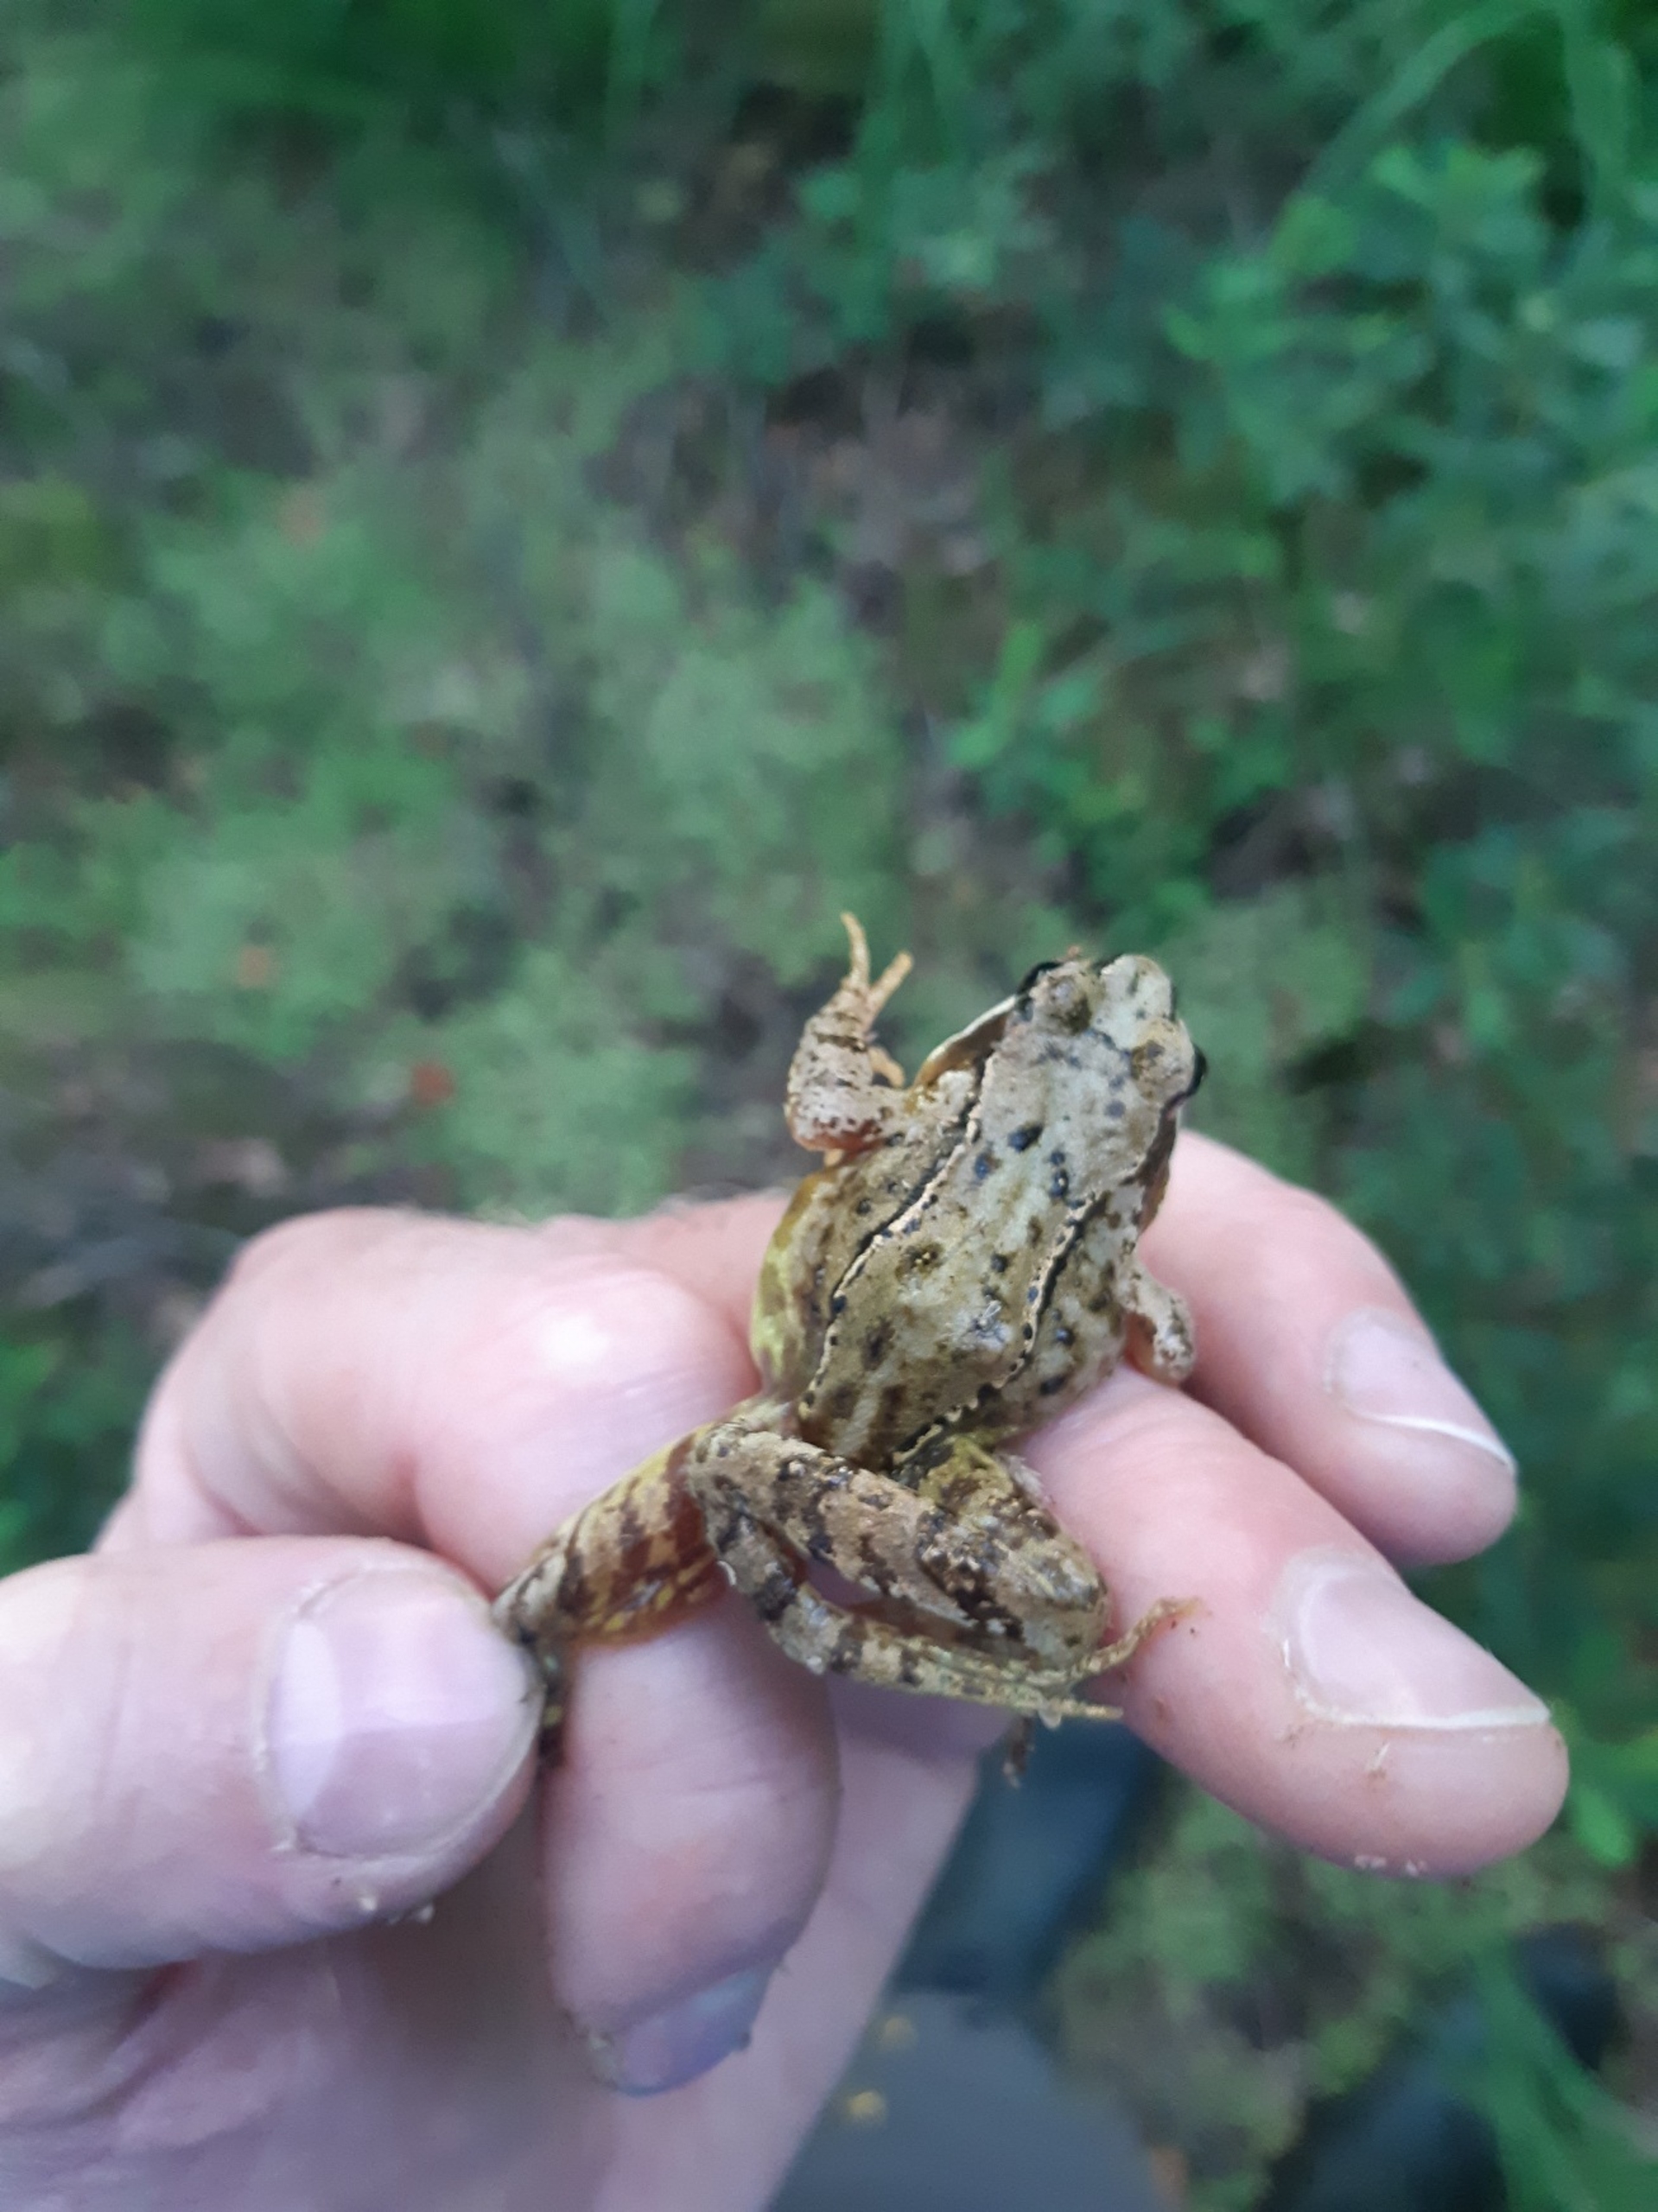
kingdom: Animalia
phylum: Chordata
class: Amphibia
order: Anura
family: Ranidae
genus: Rana
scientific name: Rana temporaria
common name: Butsnudet frø
